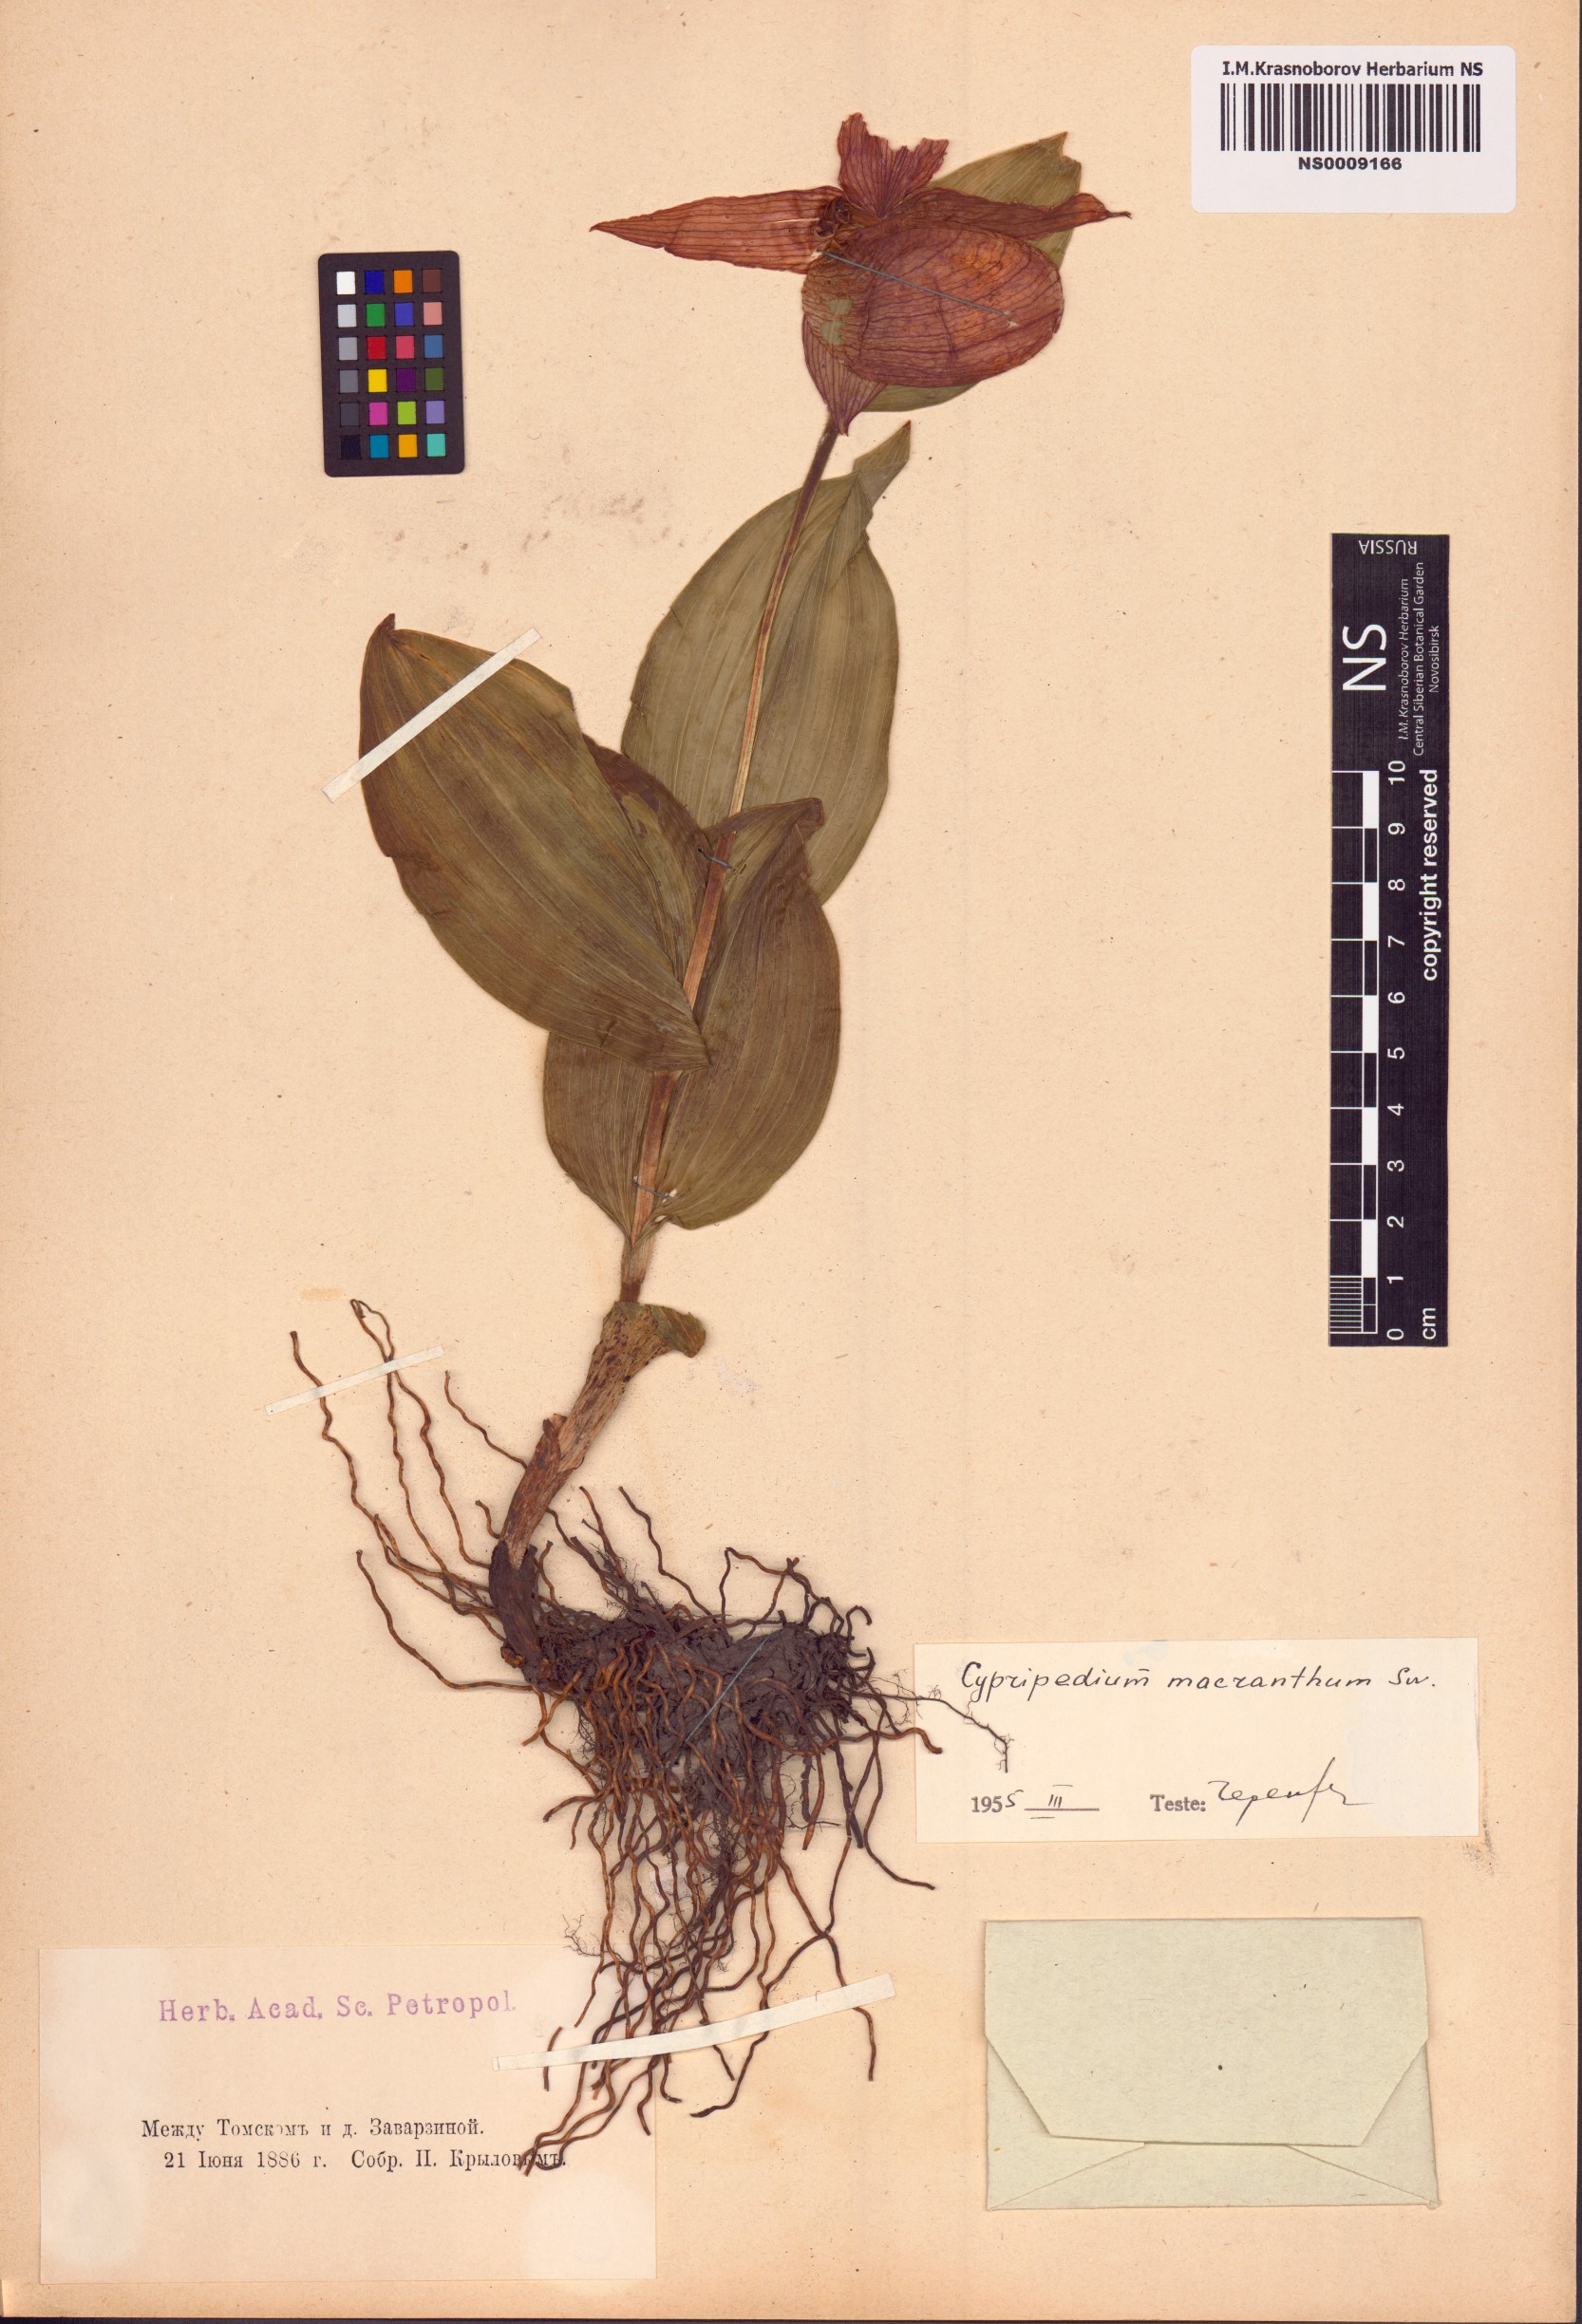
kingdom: Plantae
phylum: Tracheophyta
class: Liliopsida
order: Asparagales
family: Orchidaceae
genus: Cypripedium
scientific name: Cypripedium macranthos
